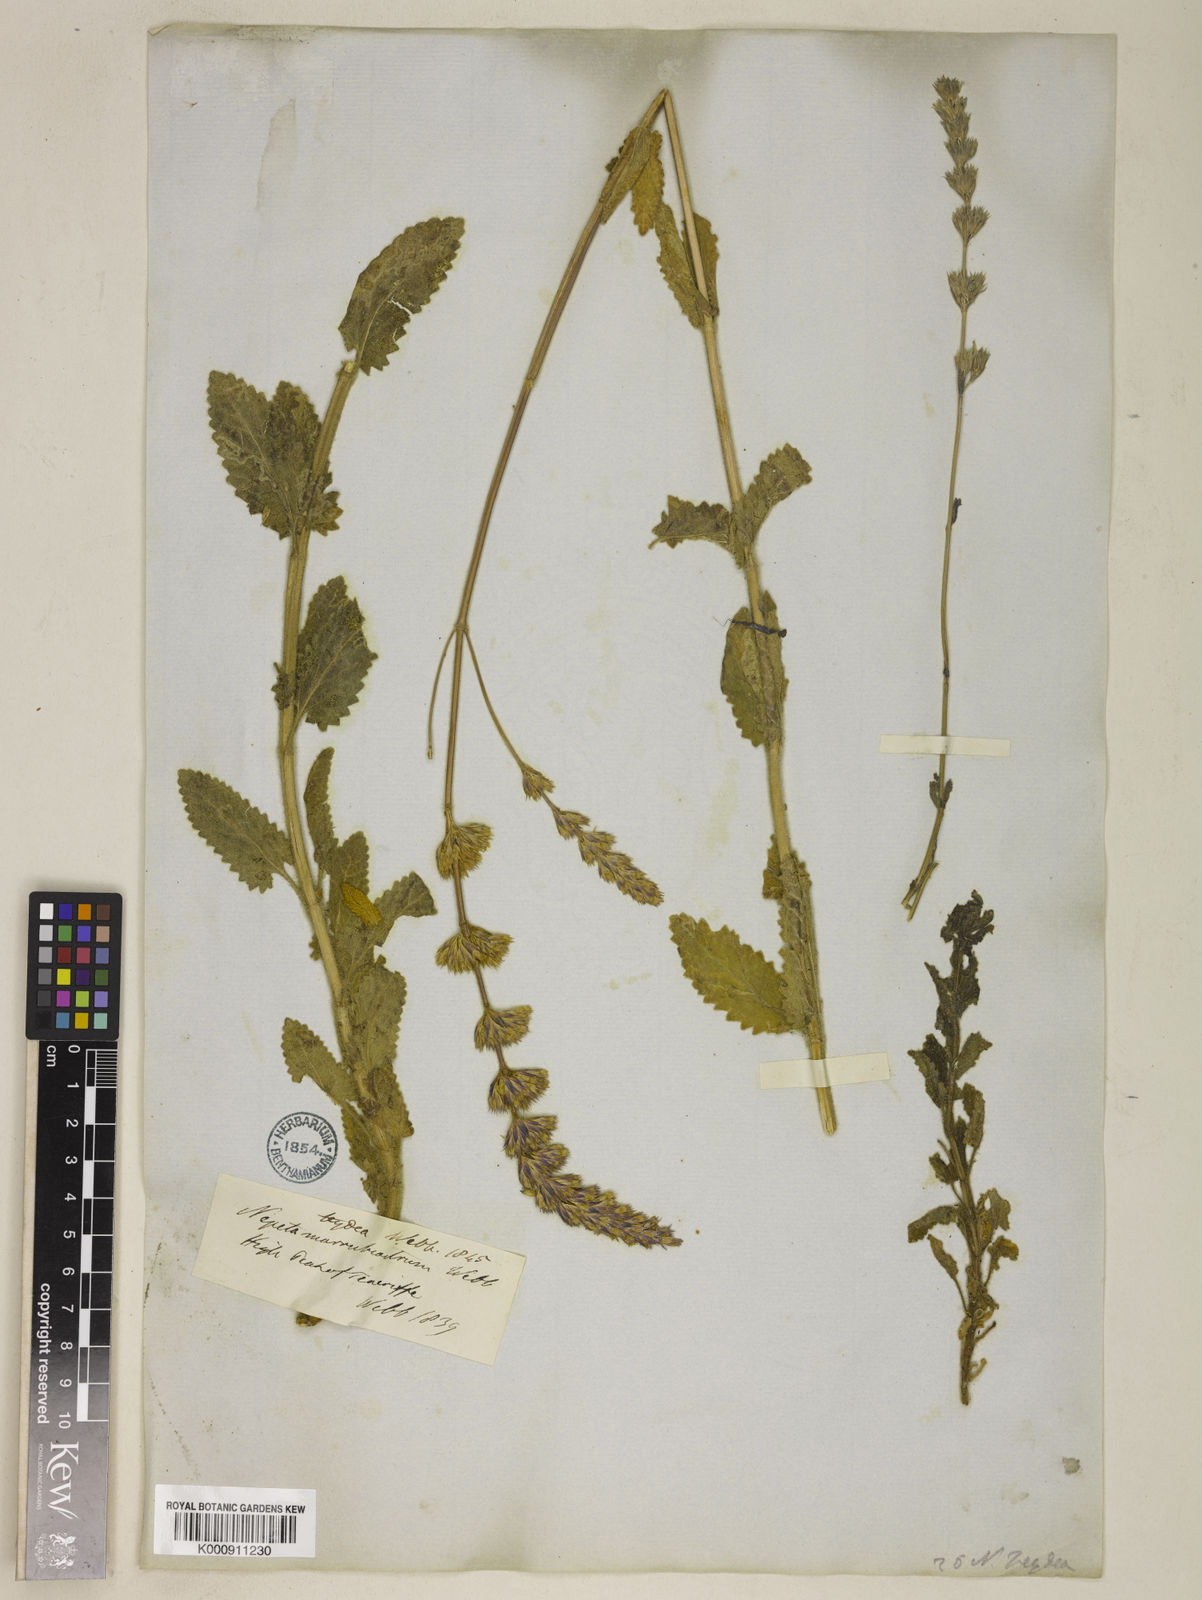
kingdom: Plantae
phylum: Tracheophyta
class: Magnoliopsida
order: Lamiales
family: Lamiaceae
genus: Nepeta
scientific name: Nepeta teydea
